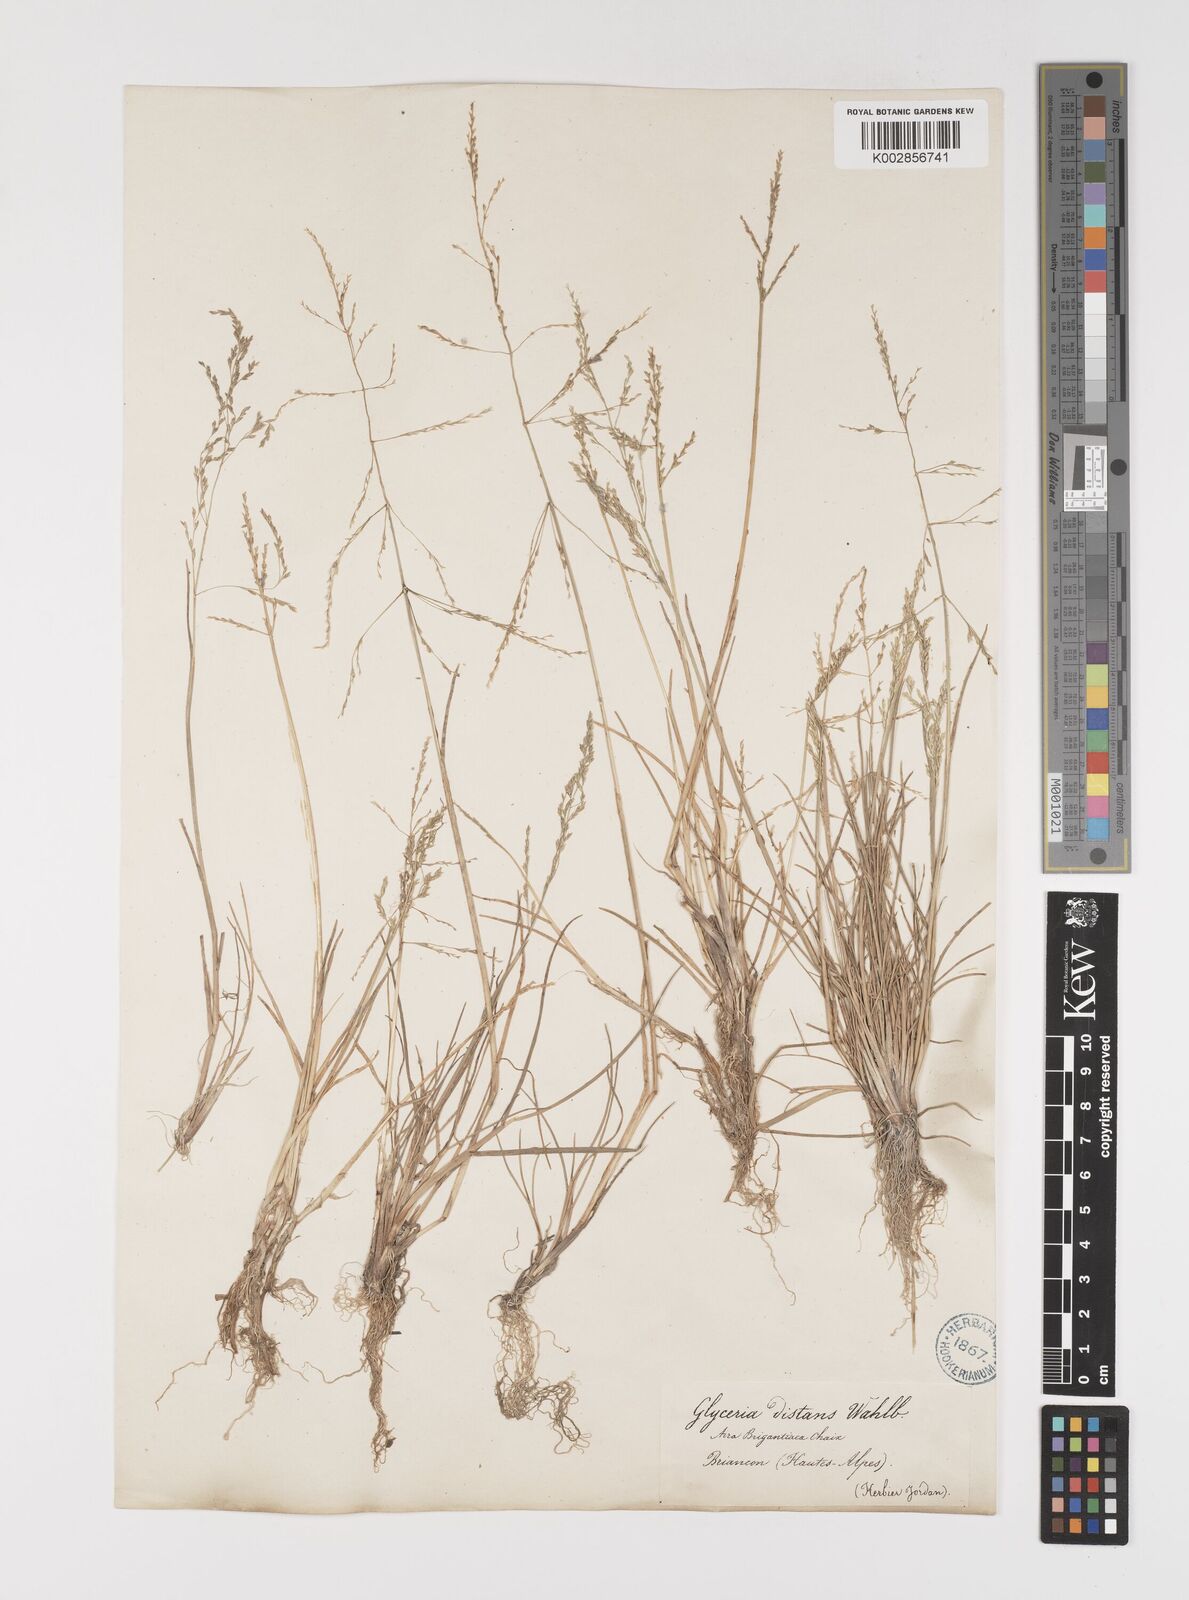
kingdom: Plantae
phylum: Tracheophyta
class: Liliopsida
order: Poales
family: Poaceae
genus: Puccinellia
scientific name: Puccinellia
